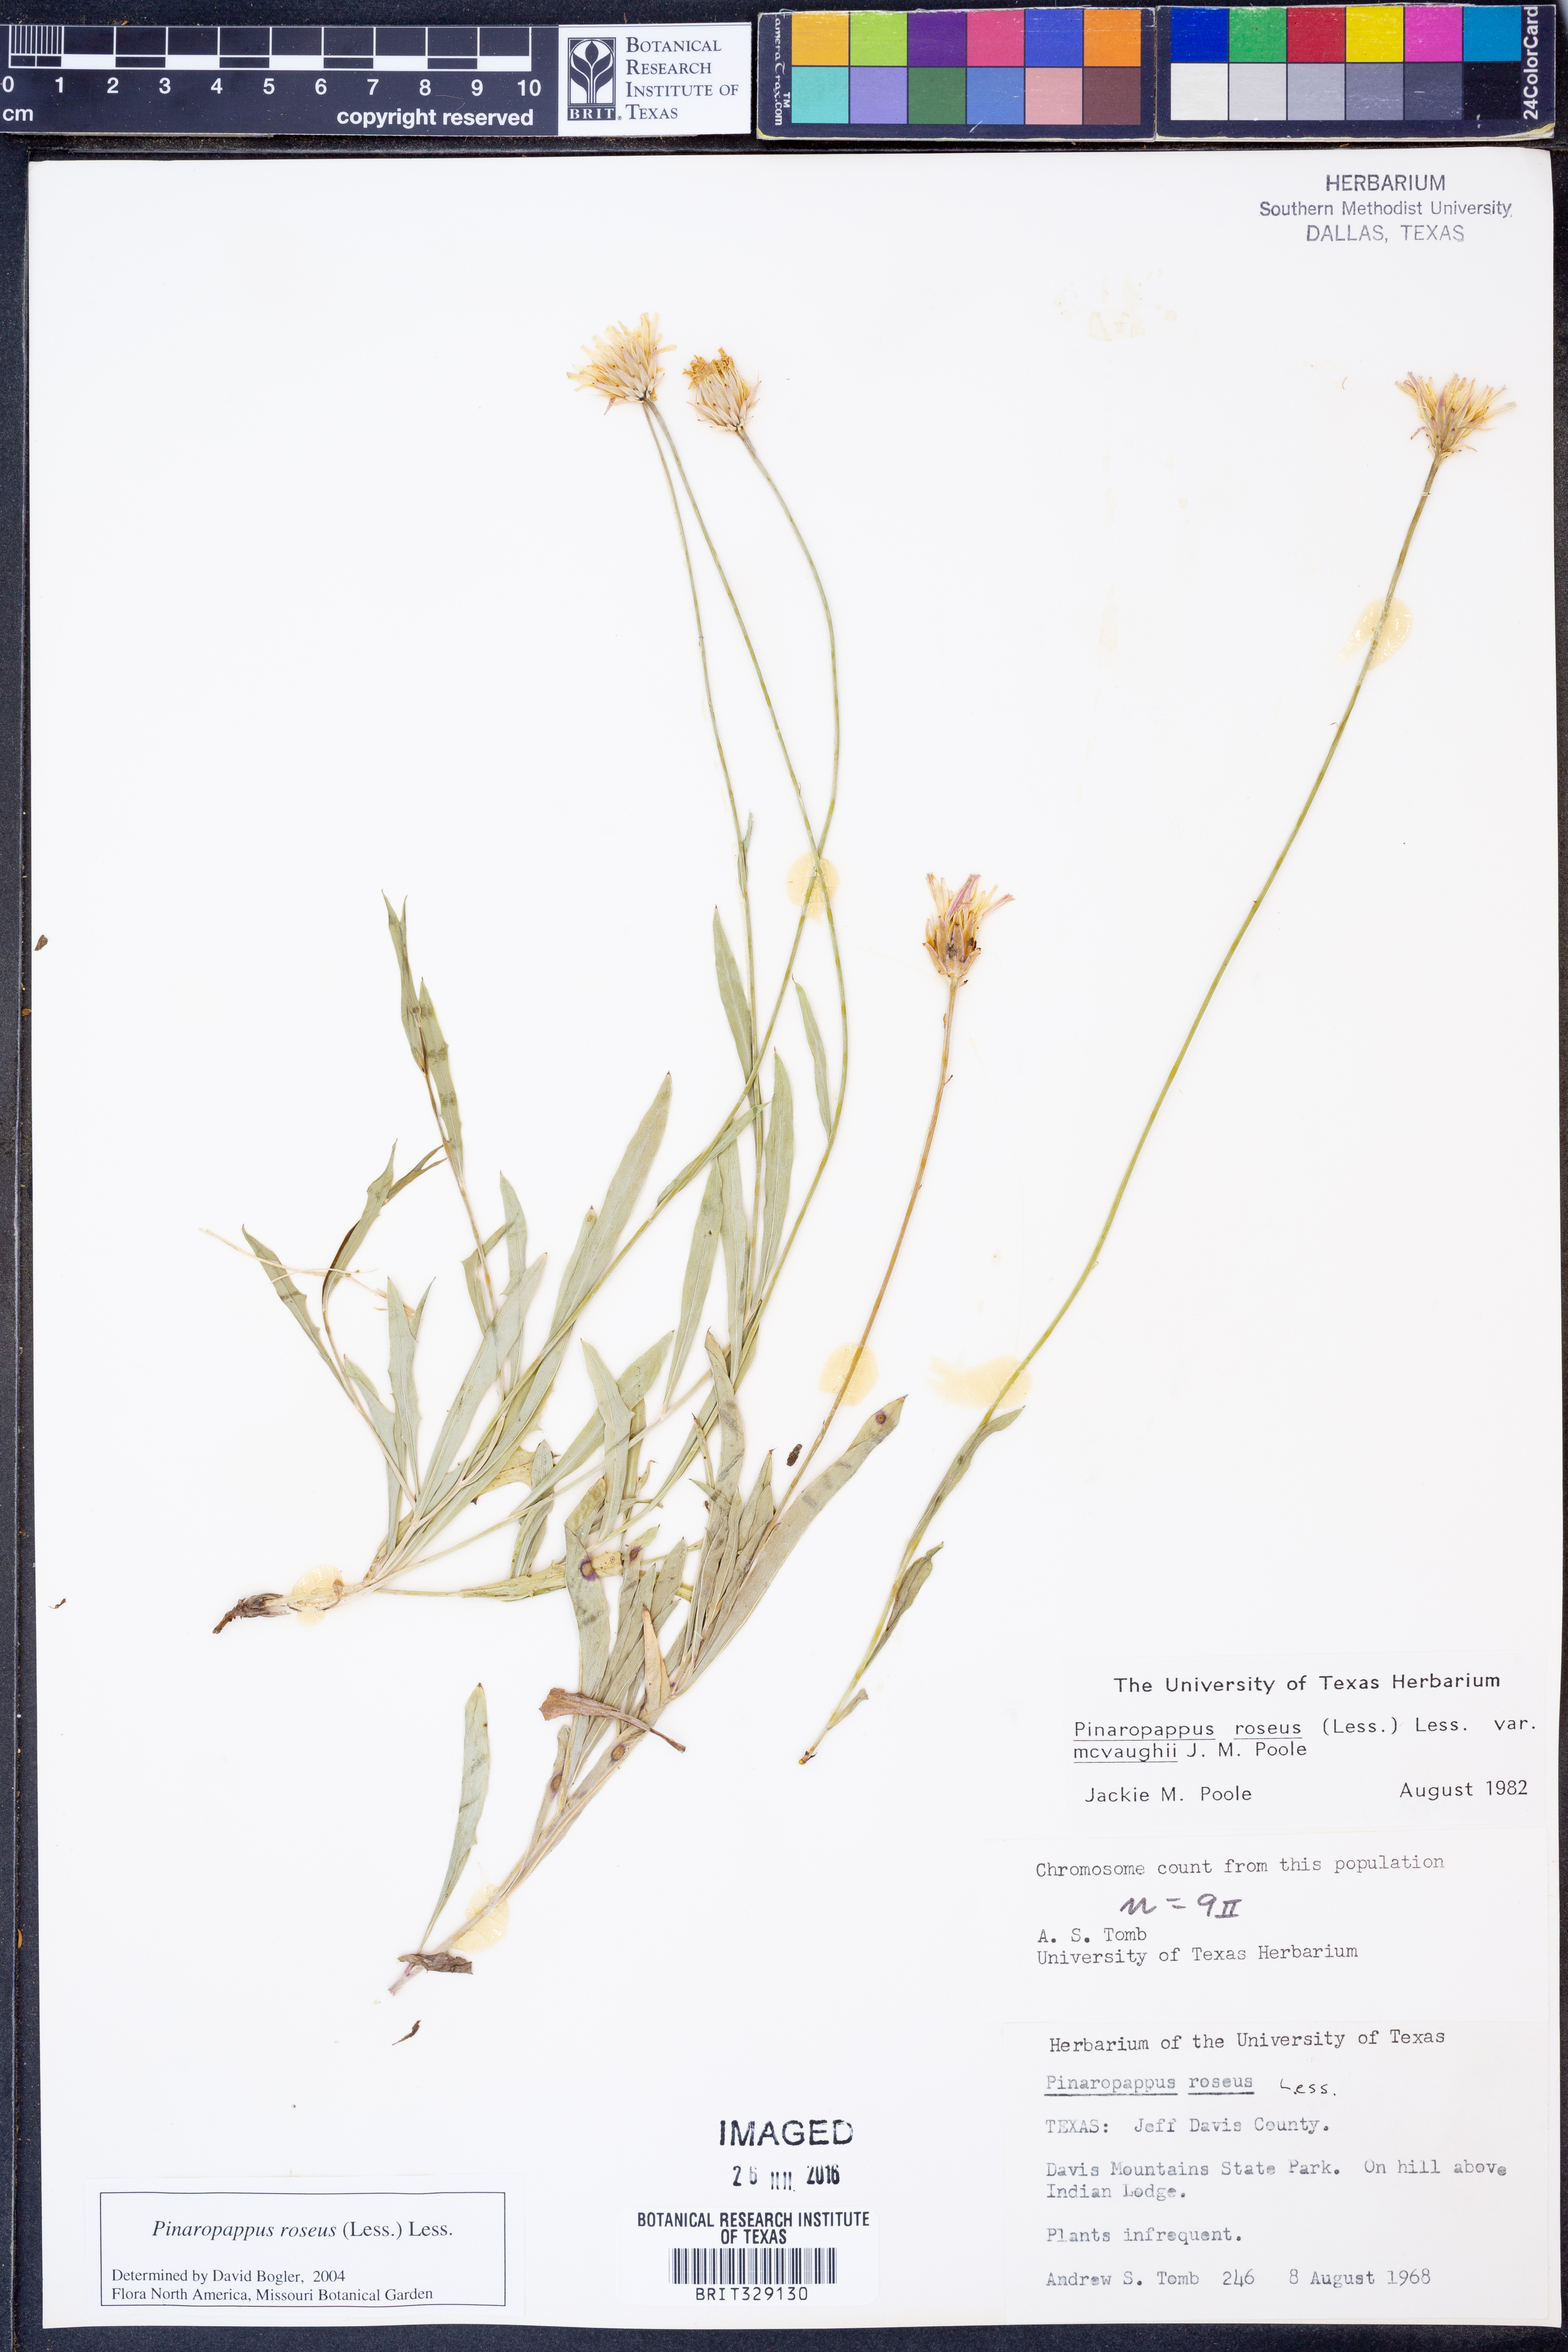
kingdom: Plantae
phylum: Tracheophyta
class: Magnoliopsida
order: Asterales
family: Asteraceae
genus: Pinaropappus
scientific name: Pinaropappus roseus
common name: Rock-lettuce
